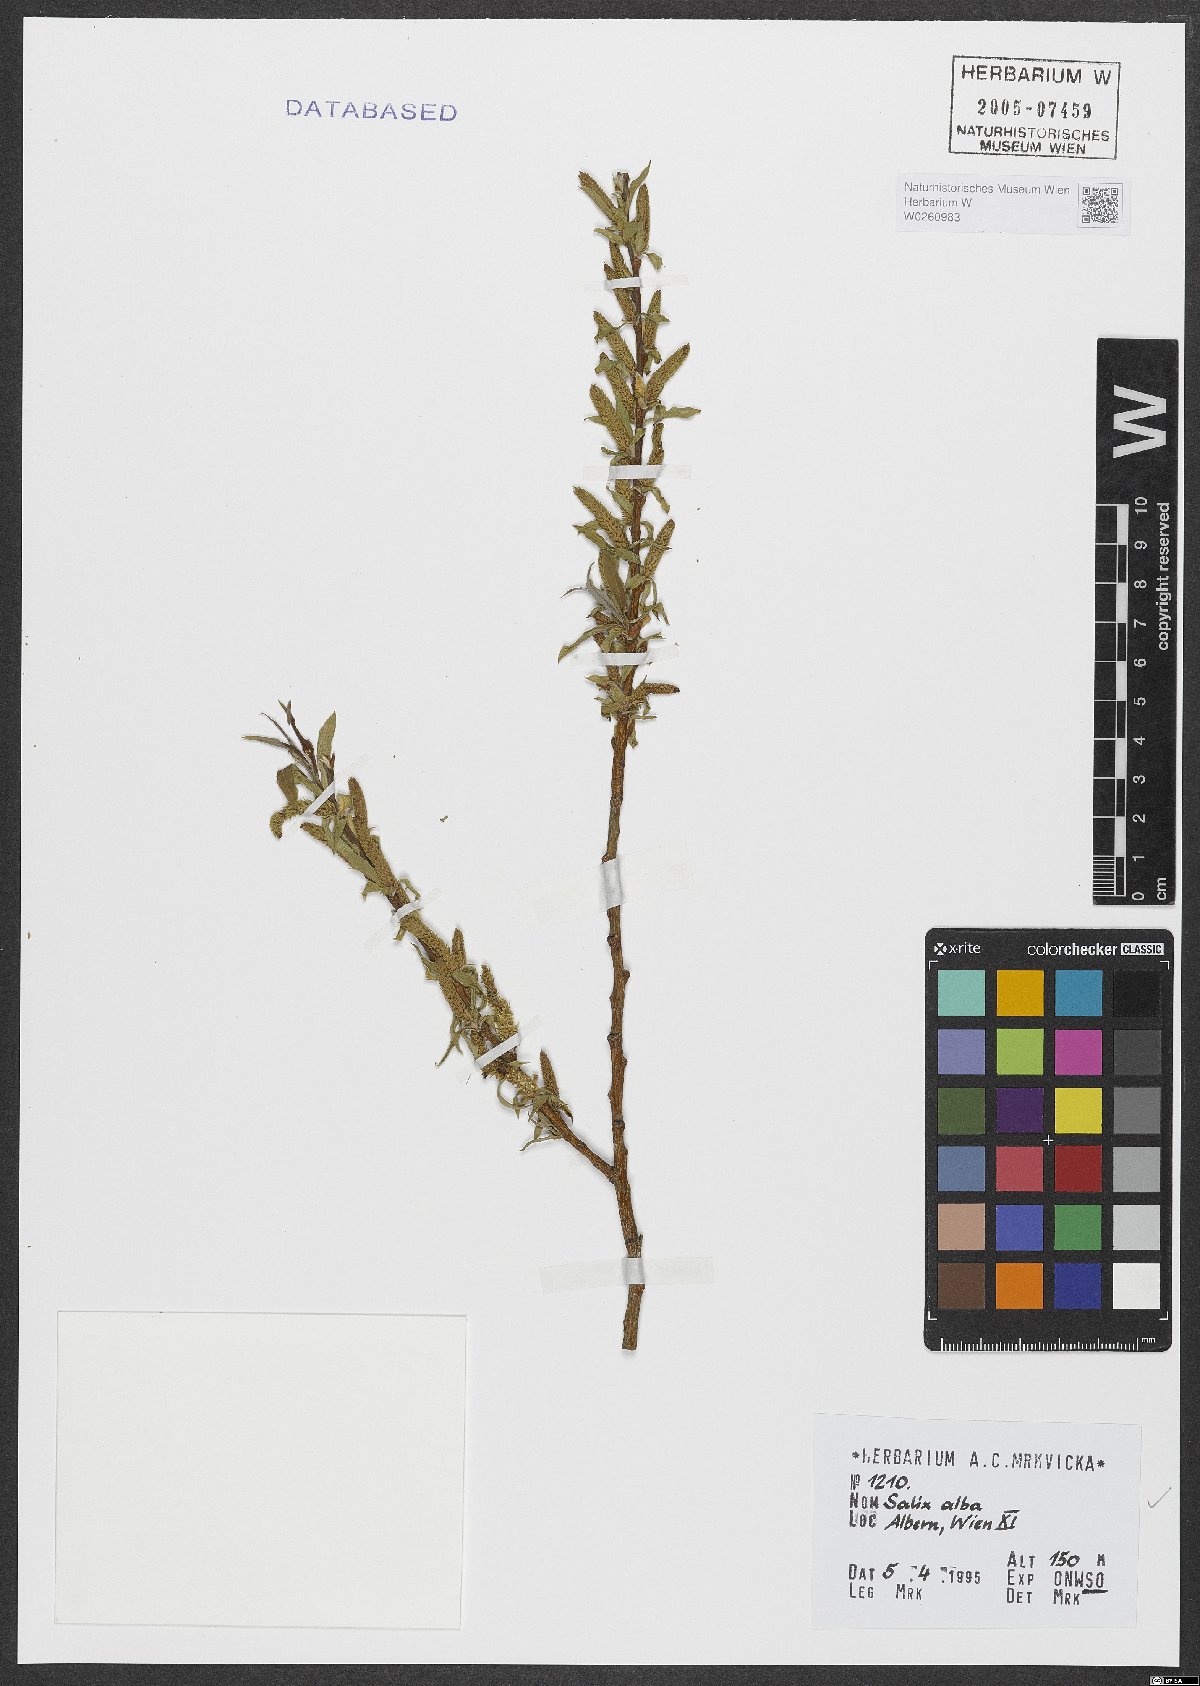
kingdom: Plantae
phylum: Tracheophyta
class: Magnoliopsida
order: Malpighiales
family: Salicaceae
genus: Salix
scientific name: Salix alba
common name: White willow
